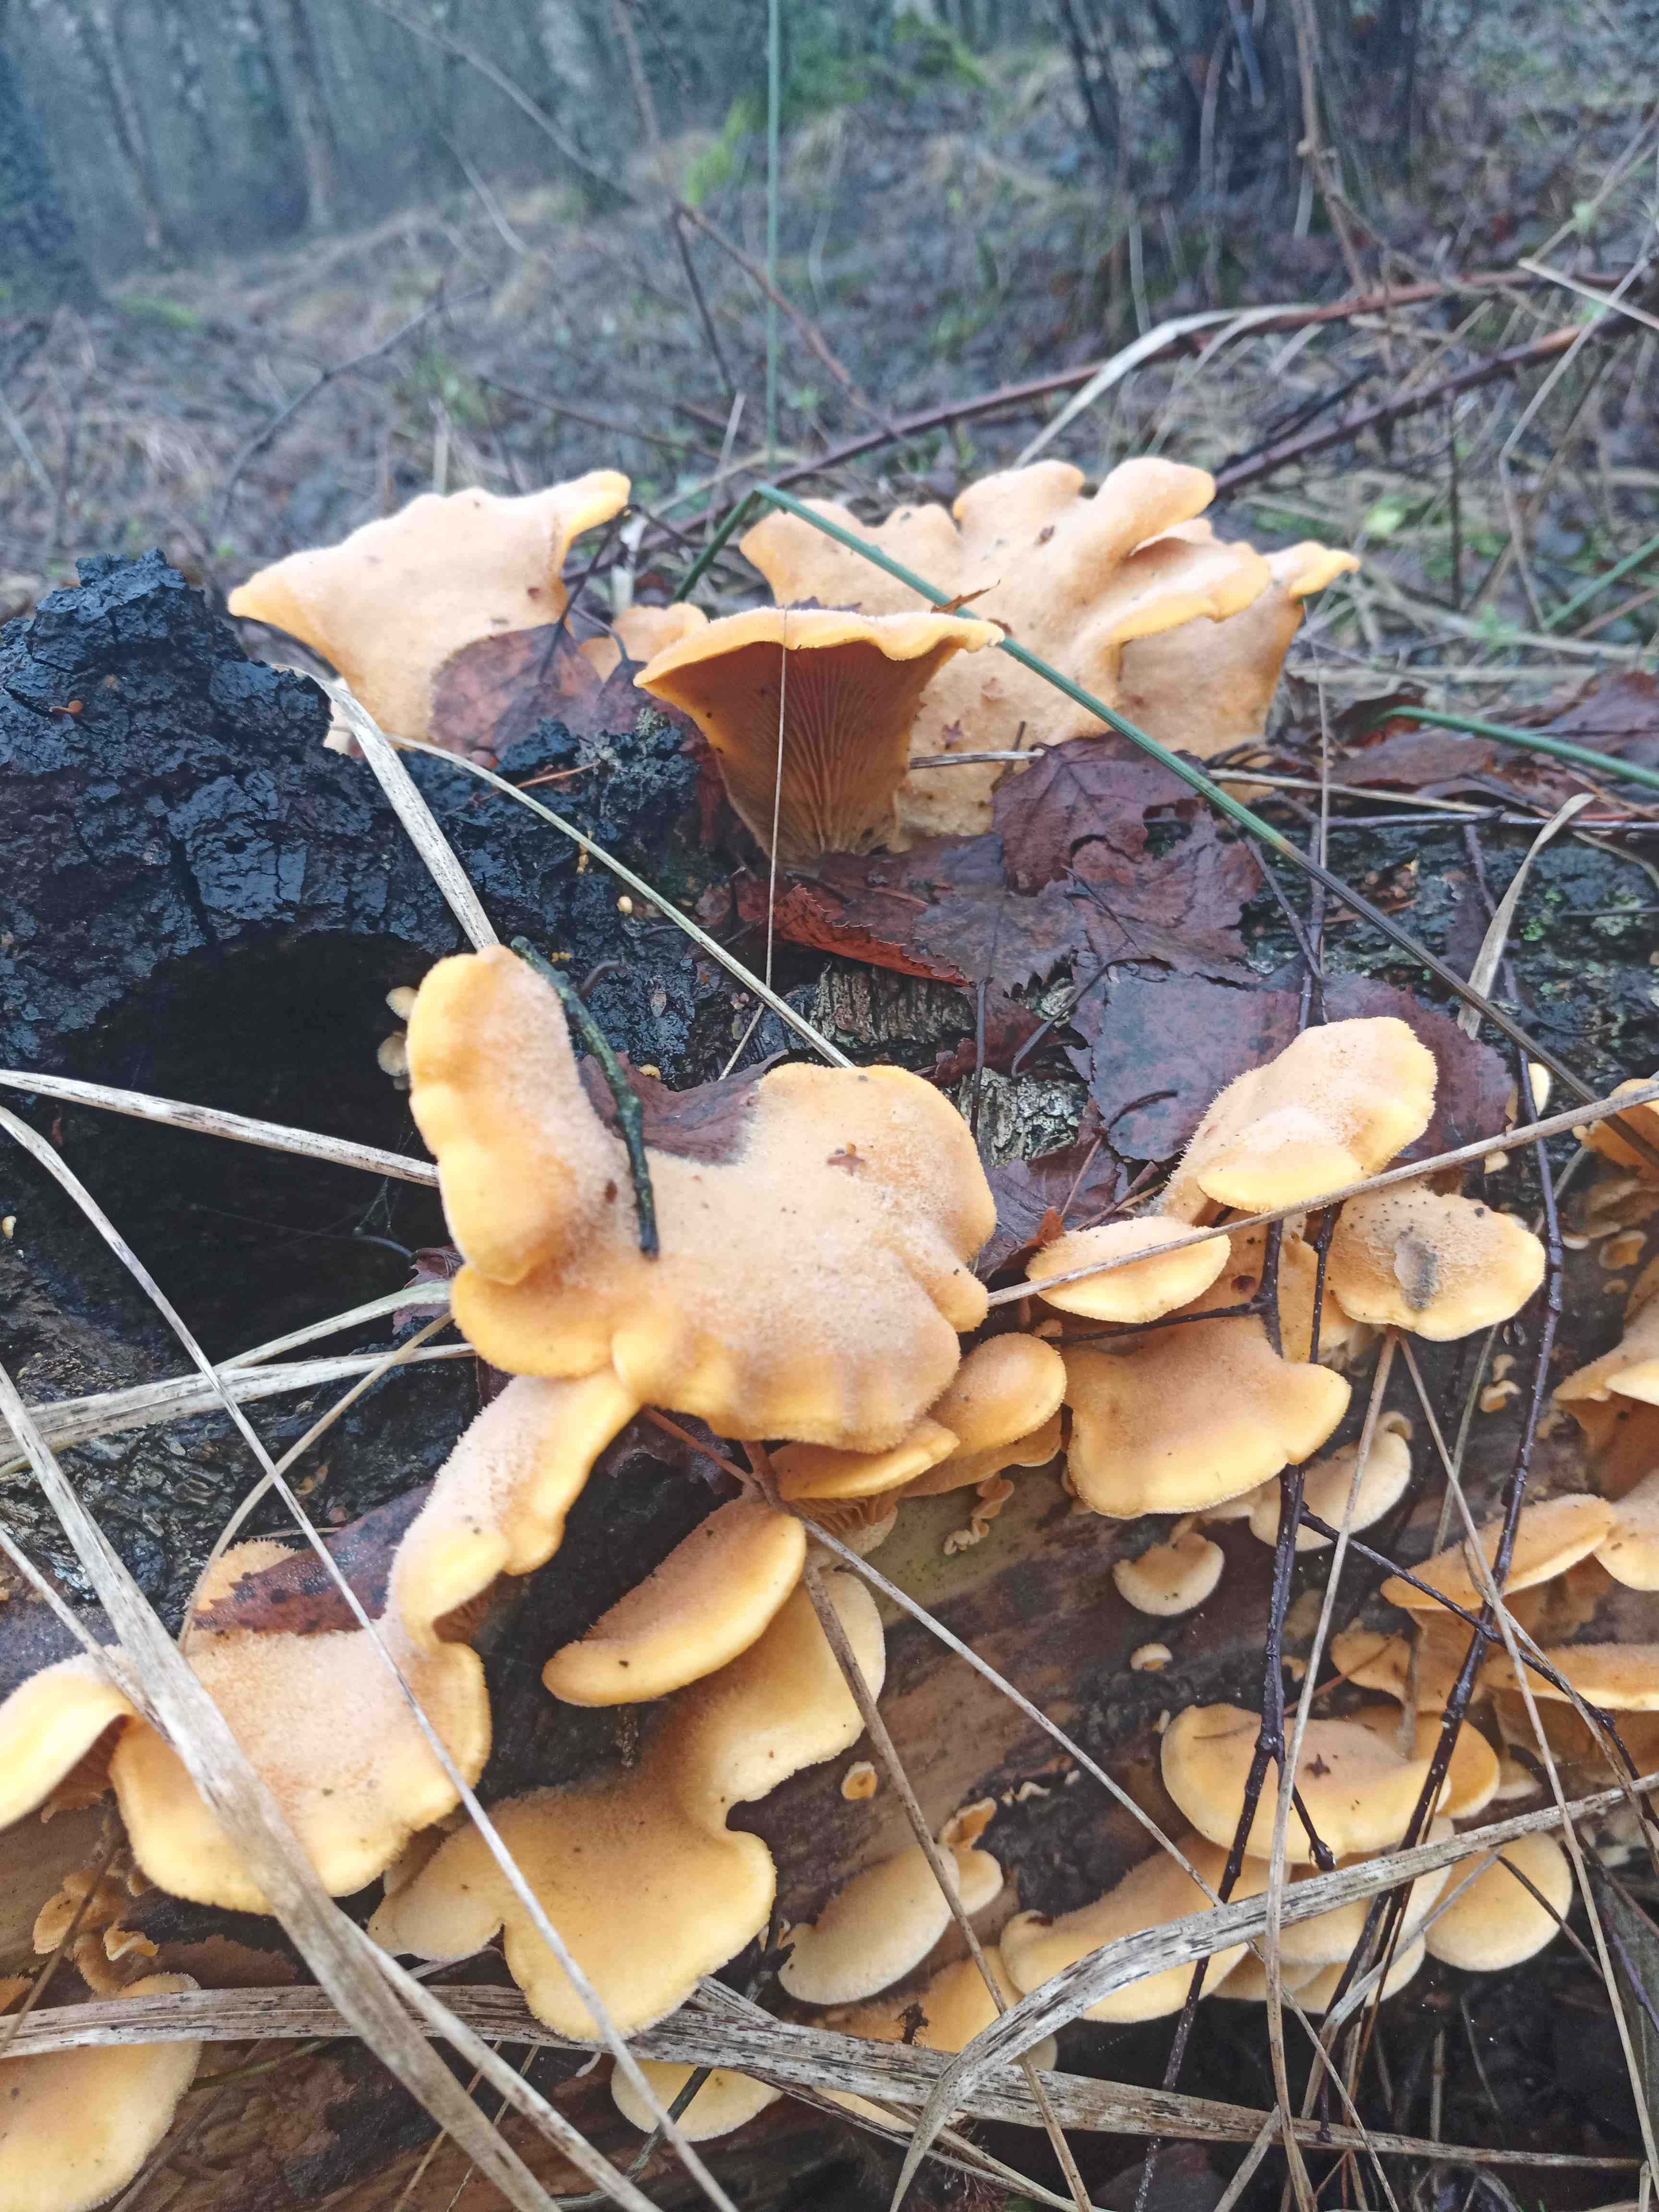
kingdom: Fungi
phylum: Basidiomycota
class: Agaricomycetes
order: Agaricales
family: Phyllotopsidaceae
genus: Phyllotopsis
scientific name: Phyllotopsis nidulans
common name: okkerblad
